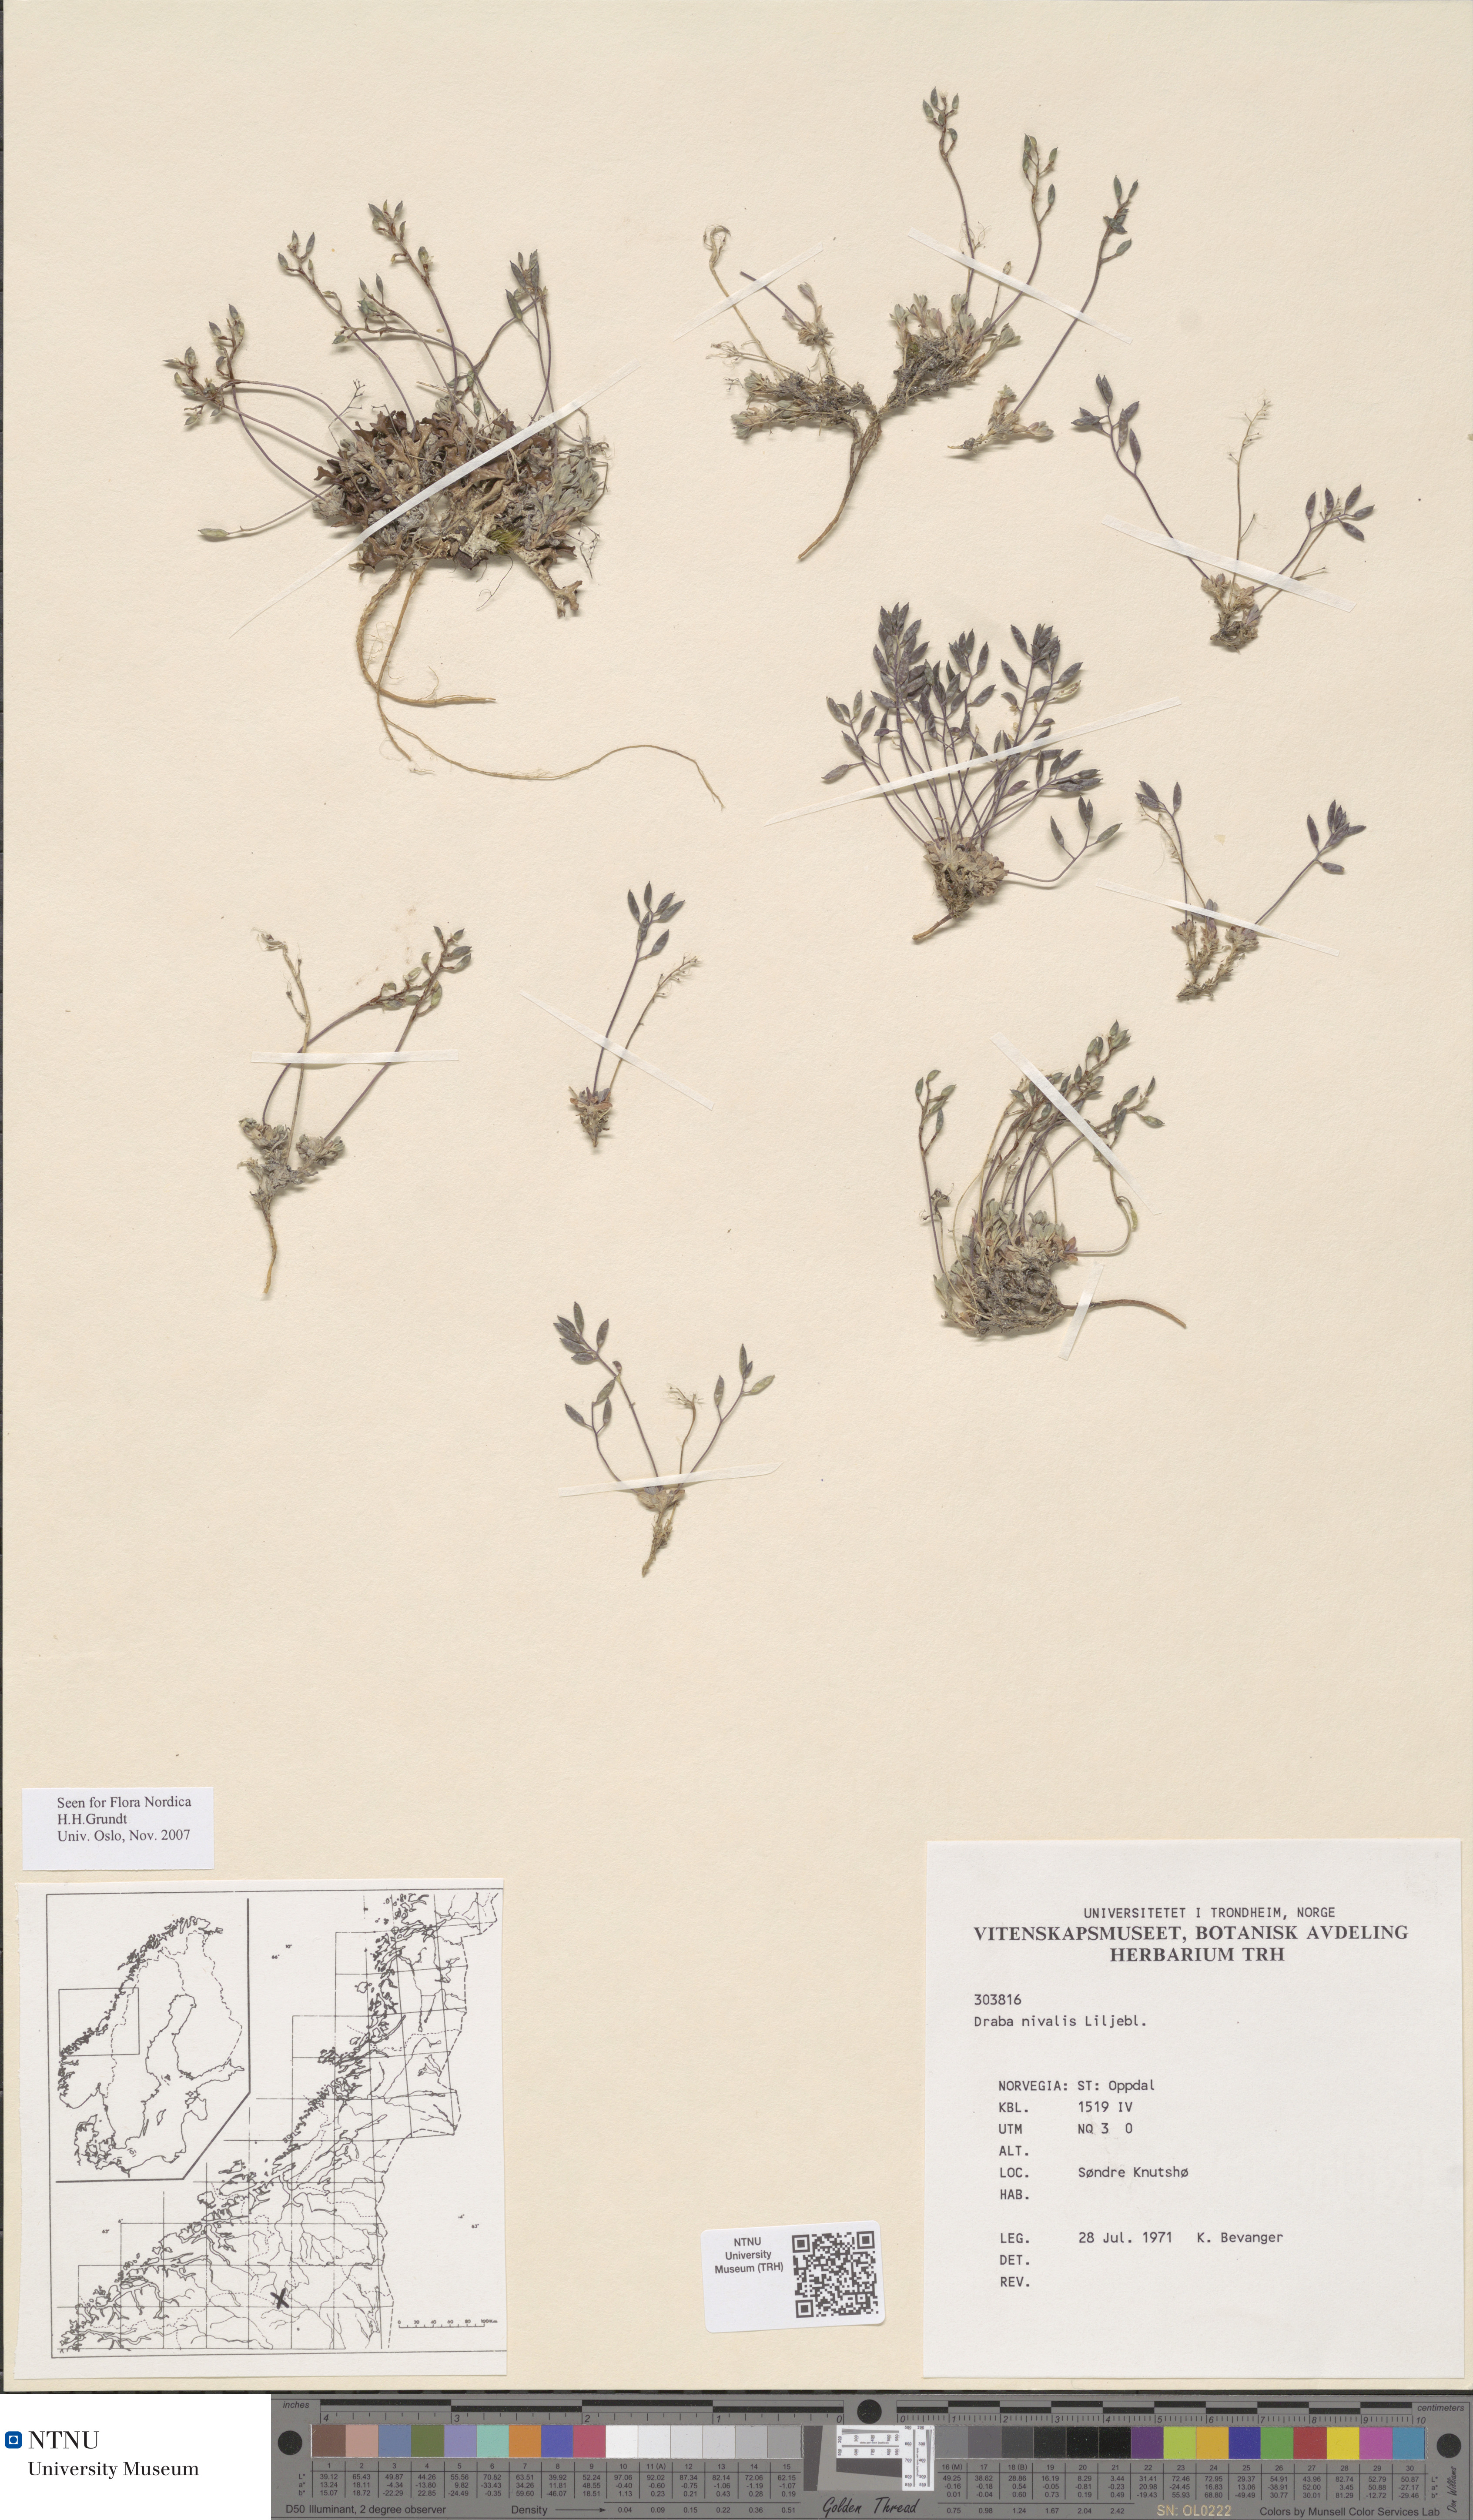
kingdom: Plantae
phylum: Tracheophyta
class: Magnoliopsida
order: Brassicales
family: Brassicaceae
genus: Draba
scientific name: Draba nivalis
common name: Snow draba
